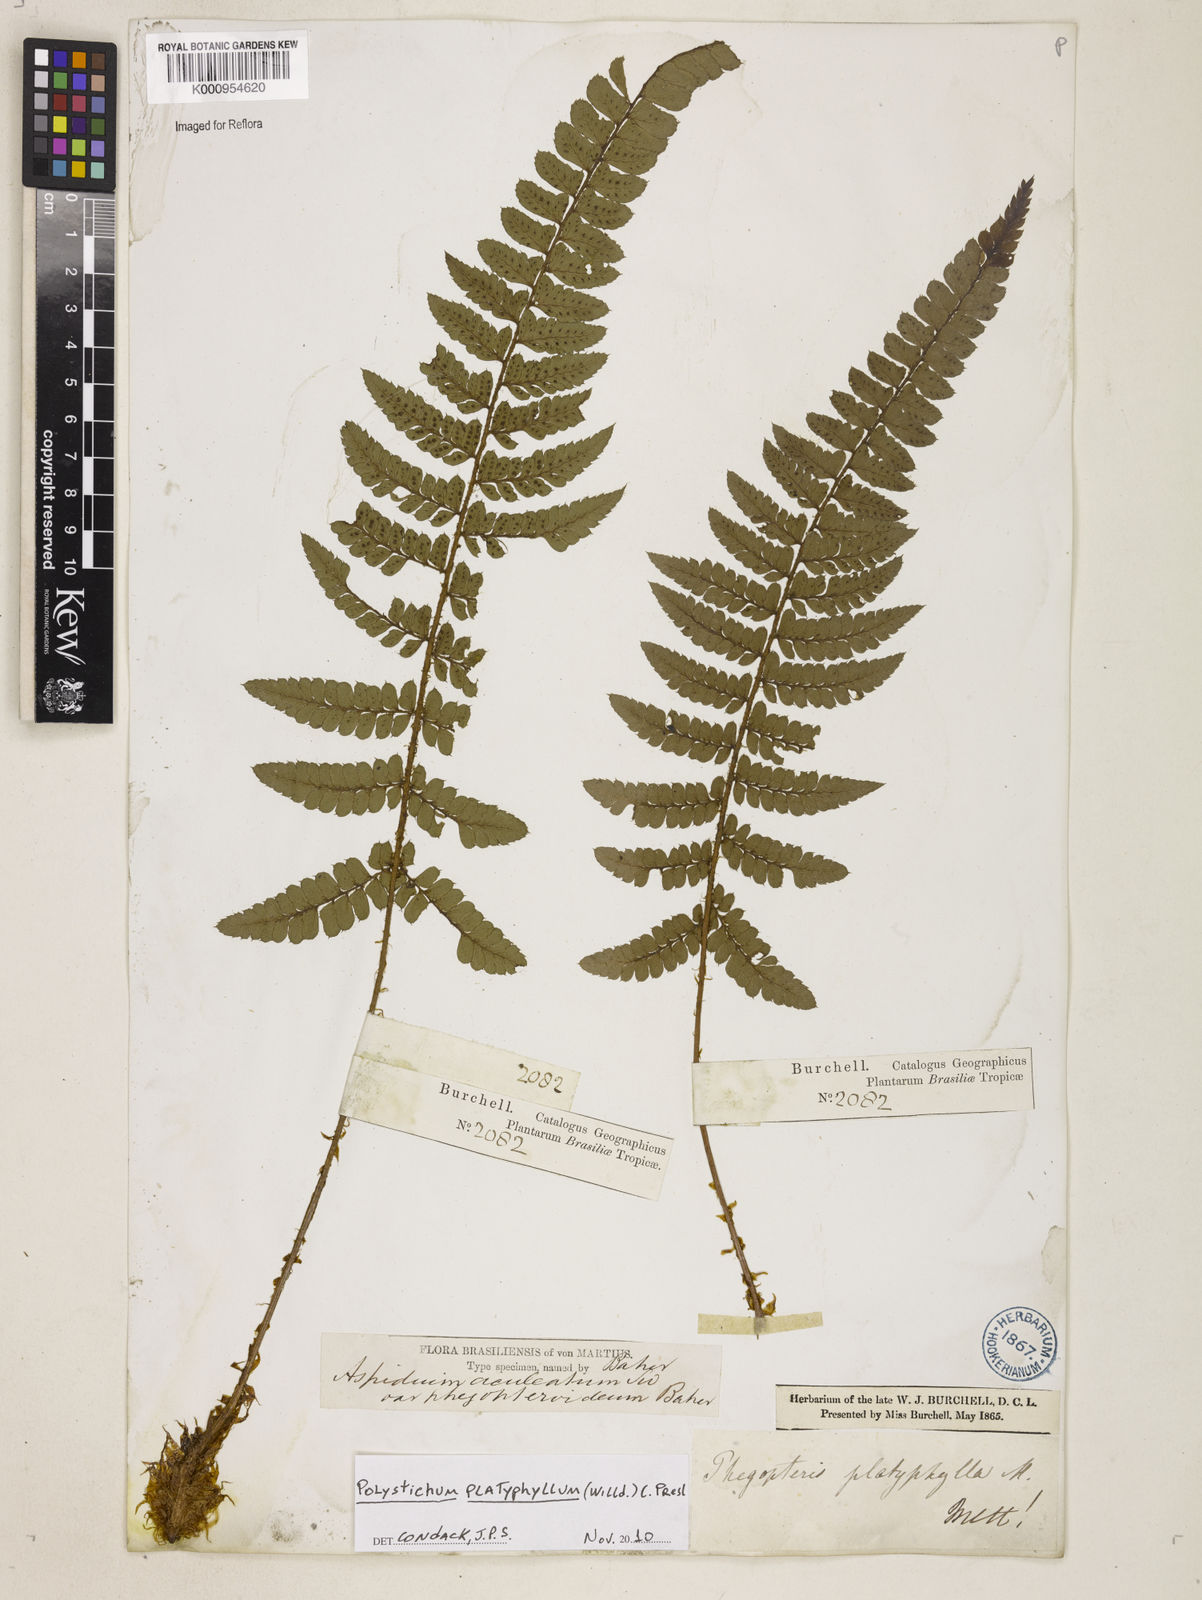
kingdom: Plantae
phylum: Tracheophyta
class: Polypodiopsida
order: Polypodiales
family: Dryopteridaceae
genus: Polystichum
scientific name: Polystichum platyphyllum
